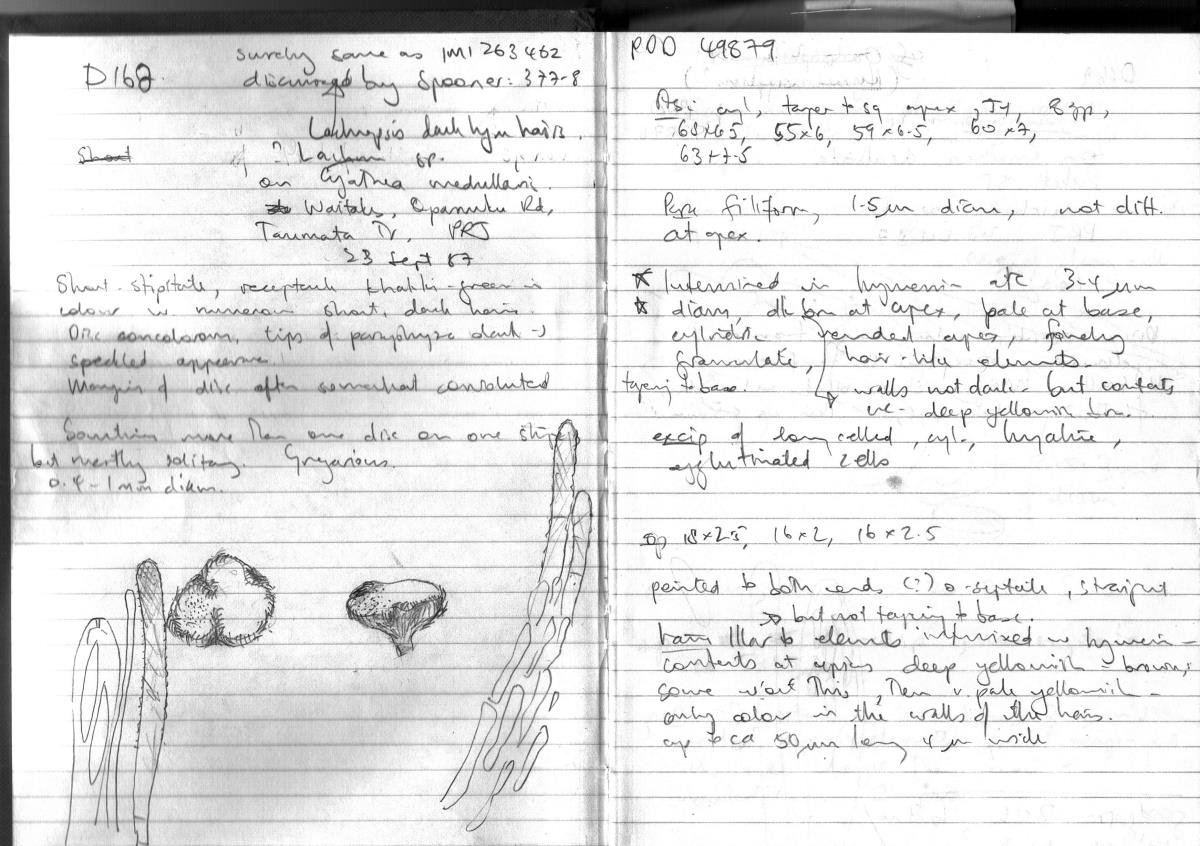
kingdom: Fungi
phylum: Ascomycota
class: Leotiomycetes
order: Helotiales
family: Lachnaceae
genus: Lachnopsis
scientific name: Lachnopsis
